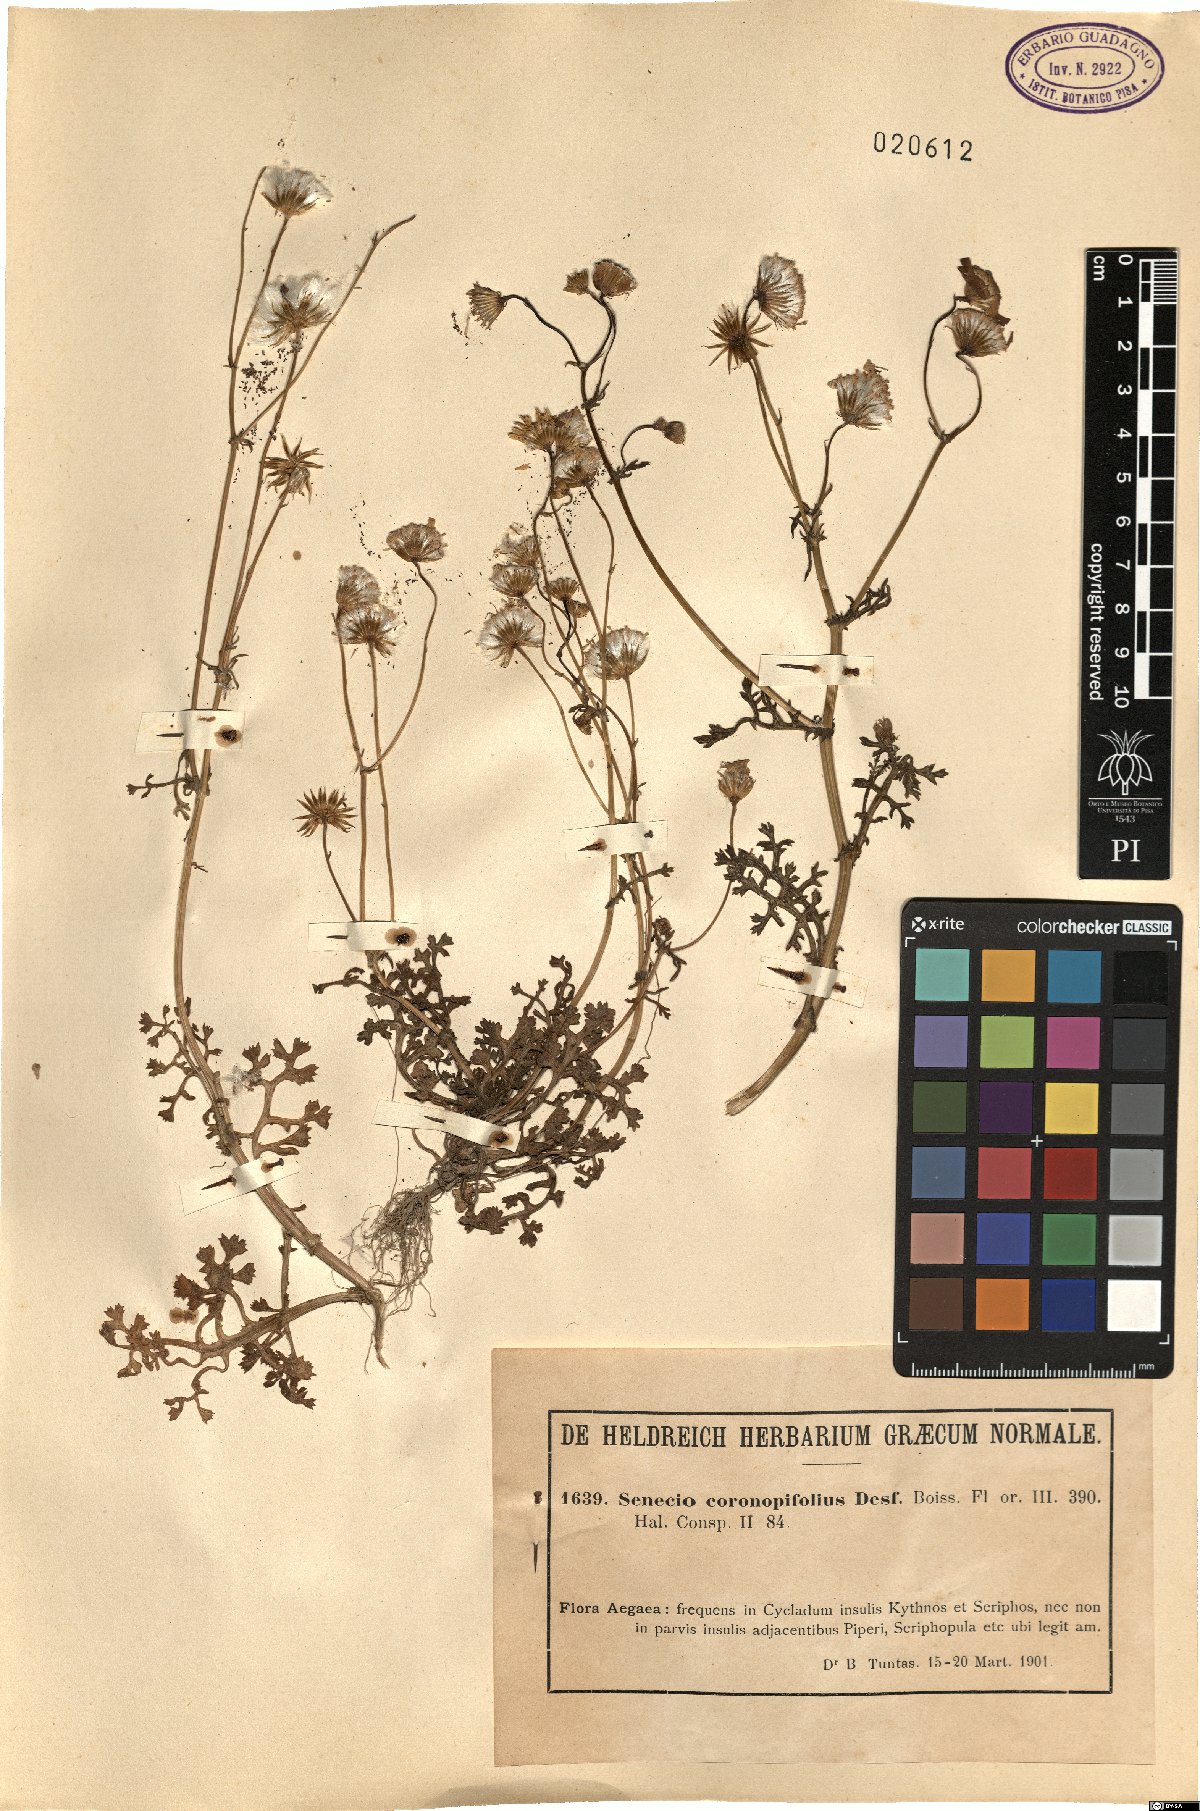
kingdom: Plantae
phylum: Tracheophyta
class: Magnoliopsida
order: Asterales
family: Asteraceae
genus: Senecio
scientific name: Senecio glaucus
